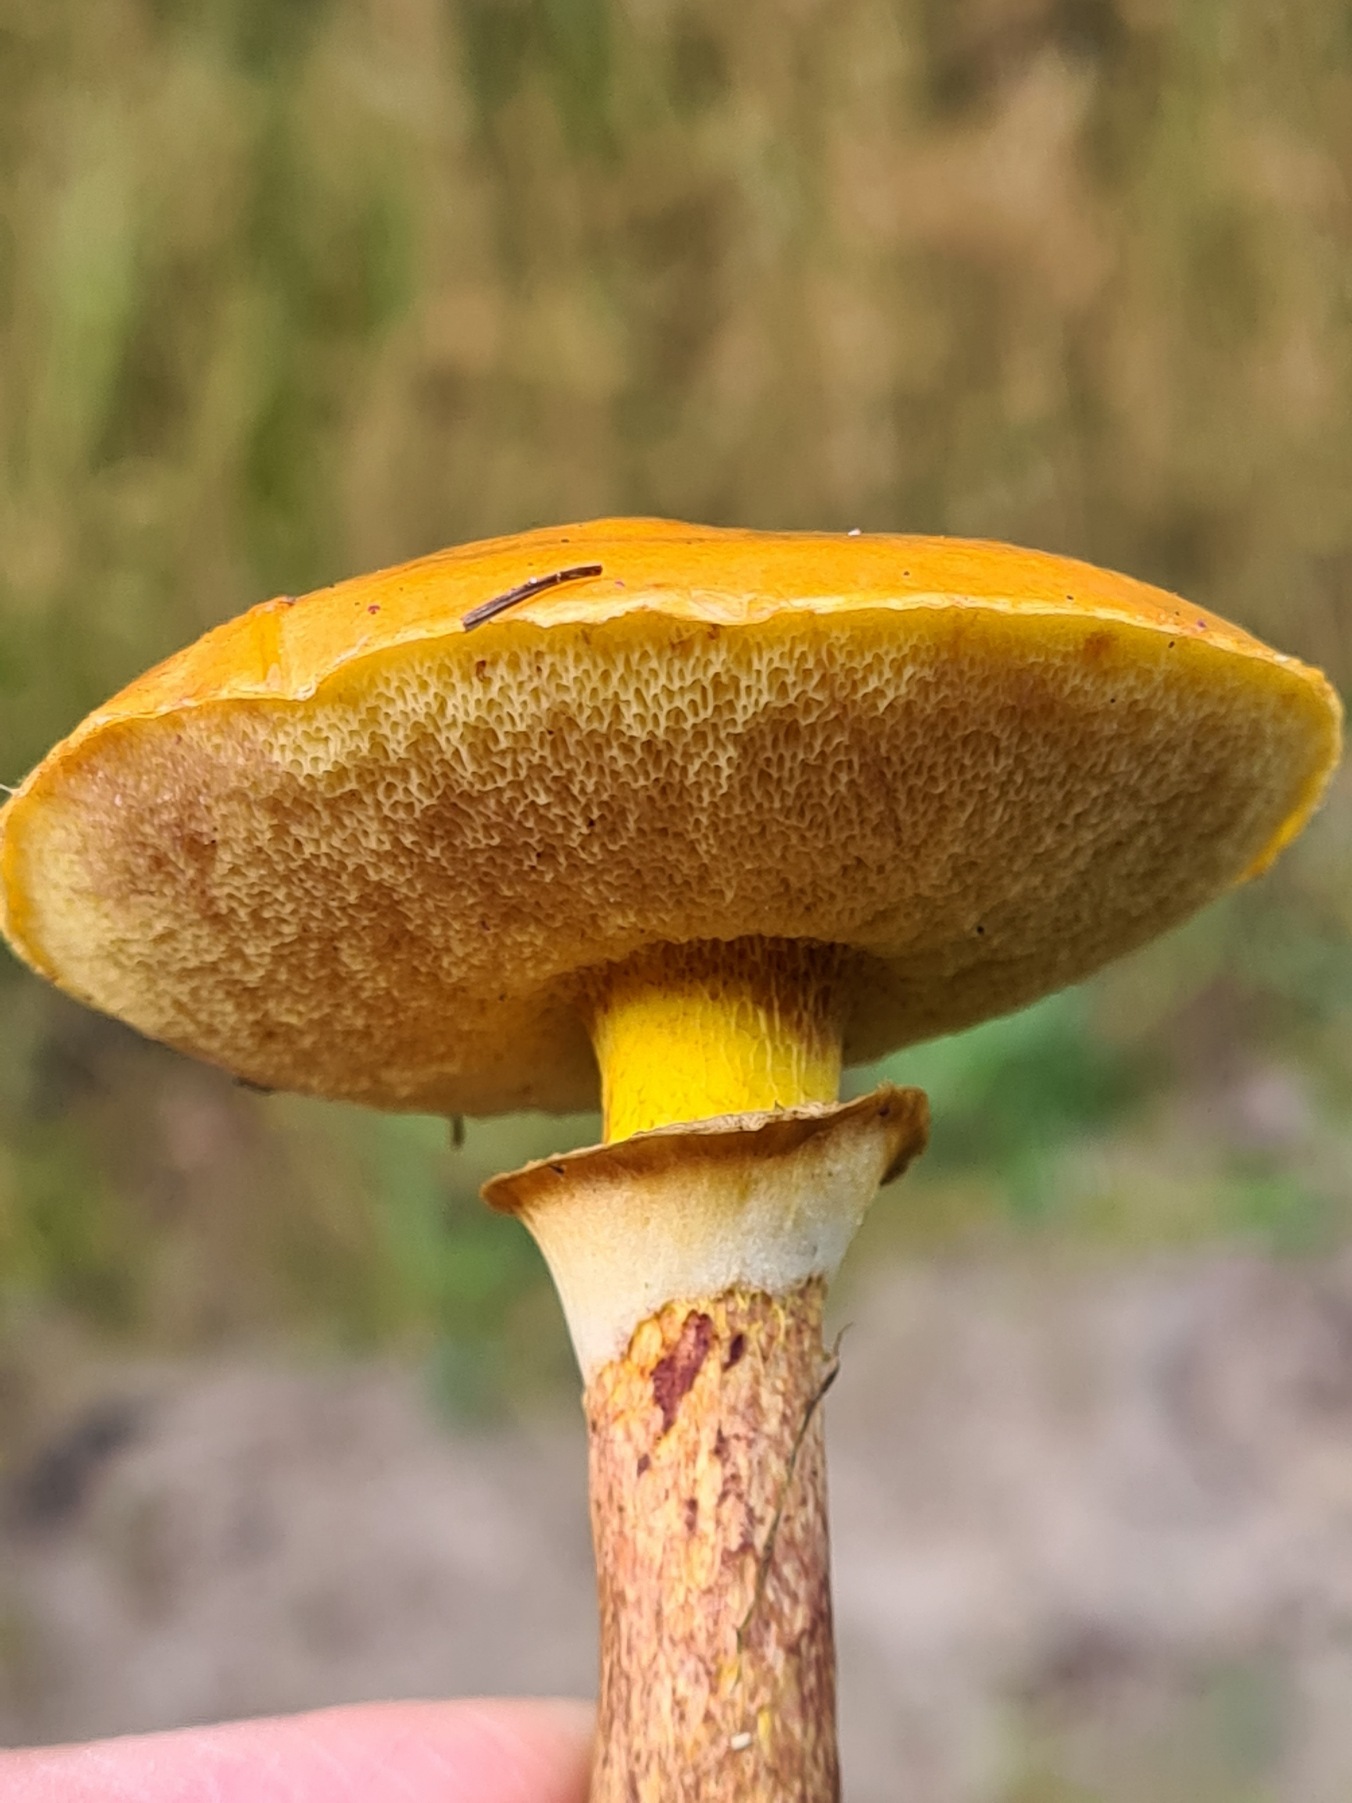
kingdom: Fungi
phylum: Basidiomycota
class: Agaricomycetes
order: Boletales
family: Suillaceae
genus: Suillus
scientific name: Suillus grevillei
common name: Lærke-slimrørhat
